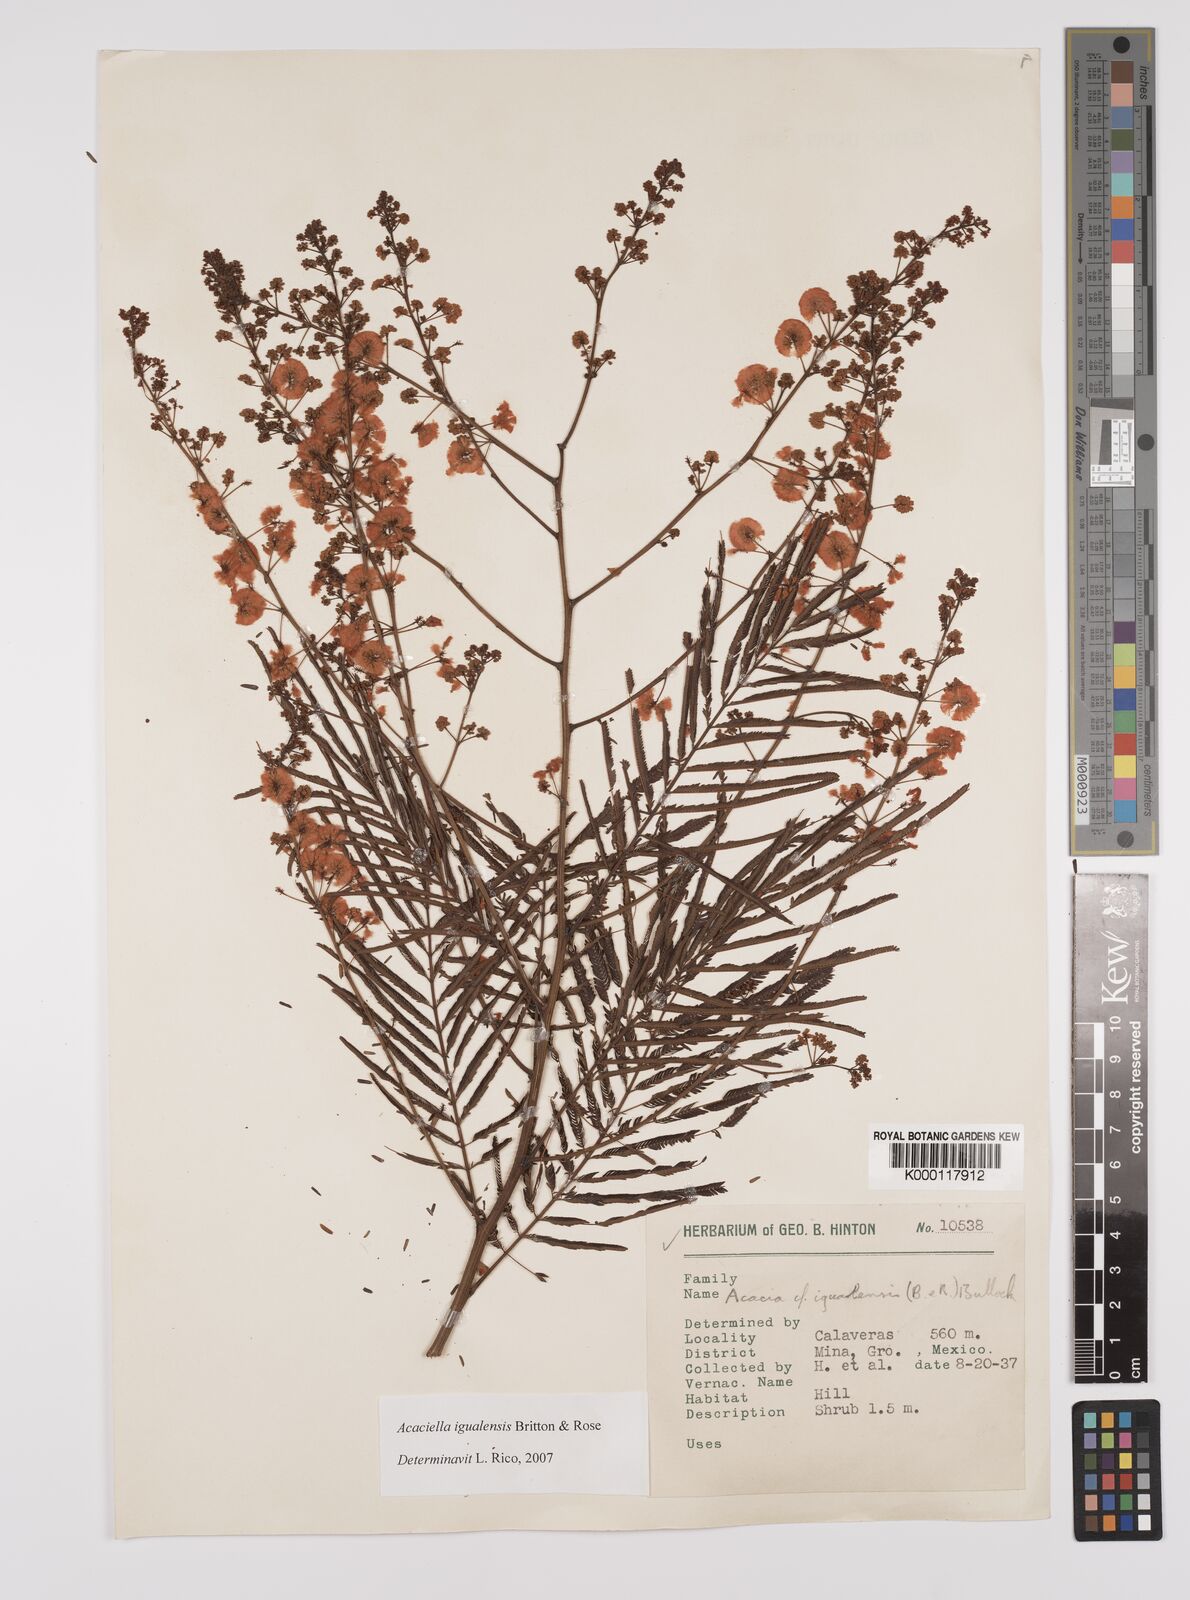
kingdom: Plantae
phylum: Tracheophyta
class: Magnoliopsida
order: Fabales
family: Fabaceae
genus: Acaciella
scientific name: Acaciella igualensis
